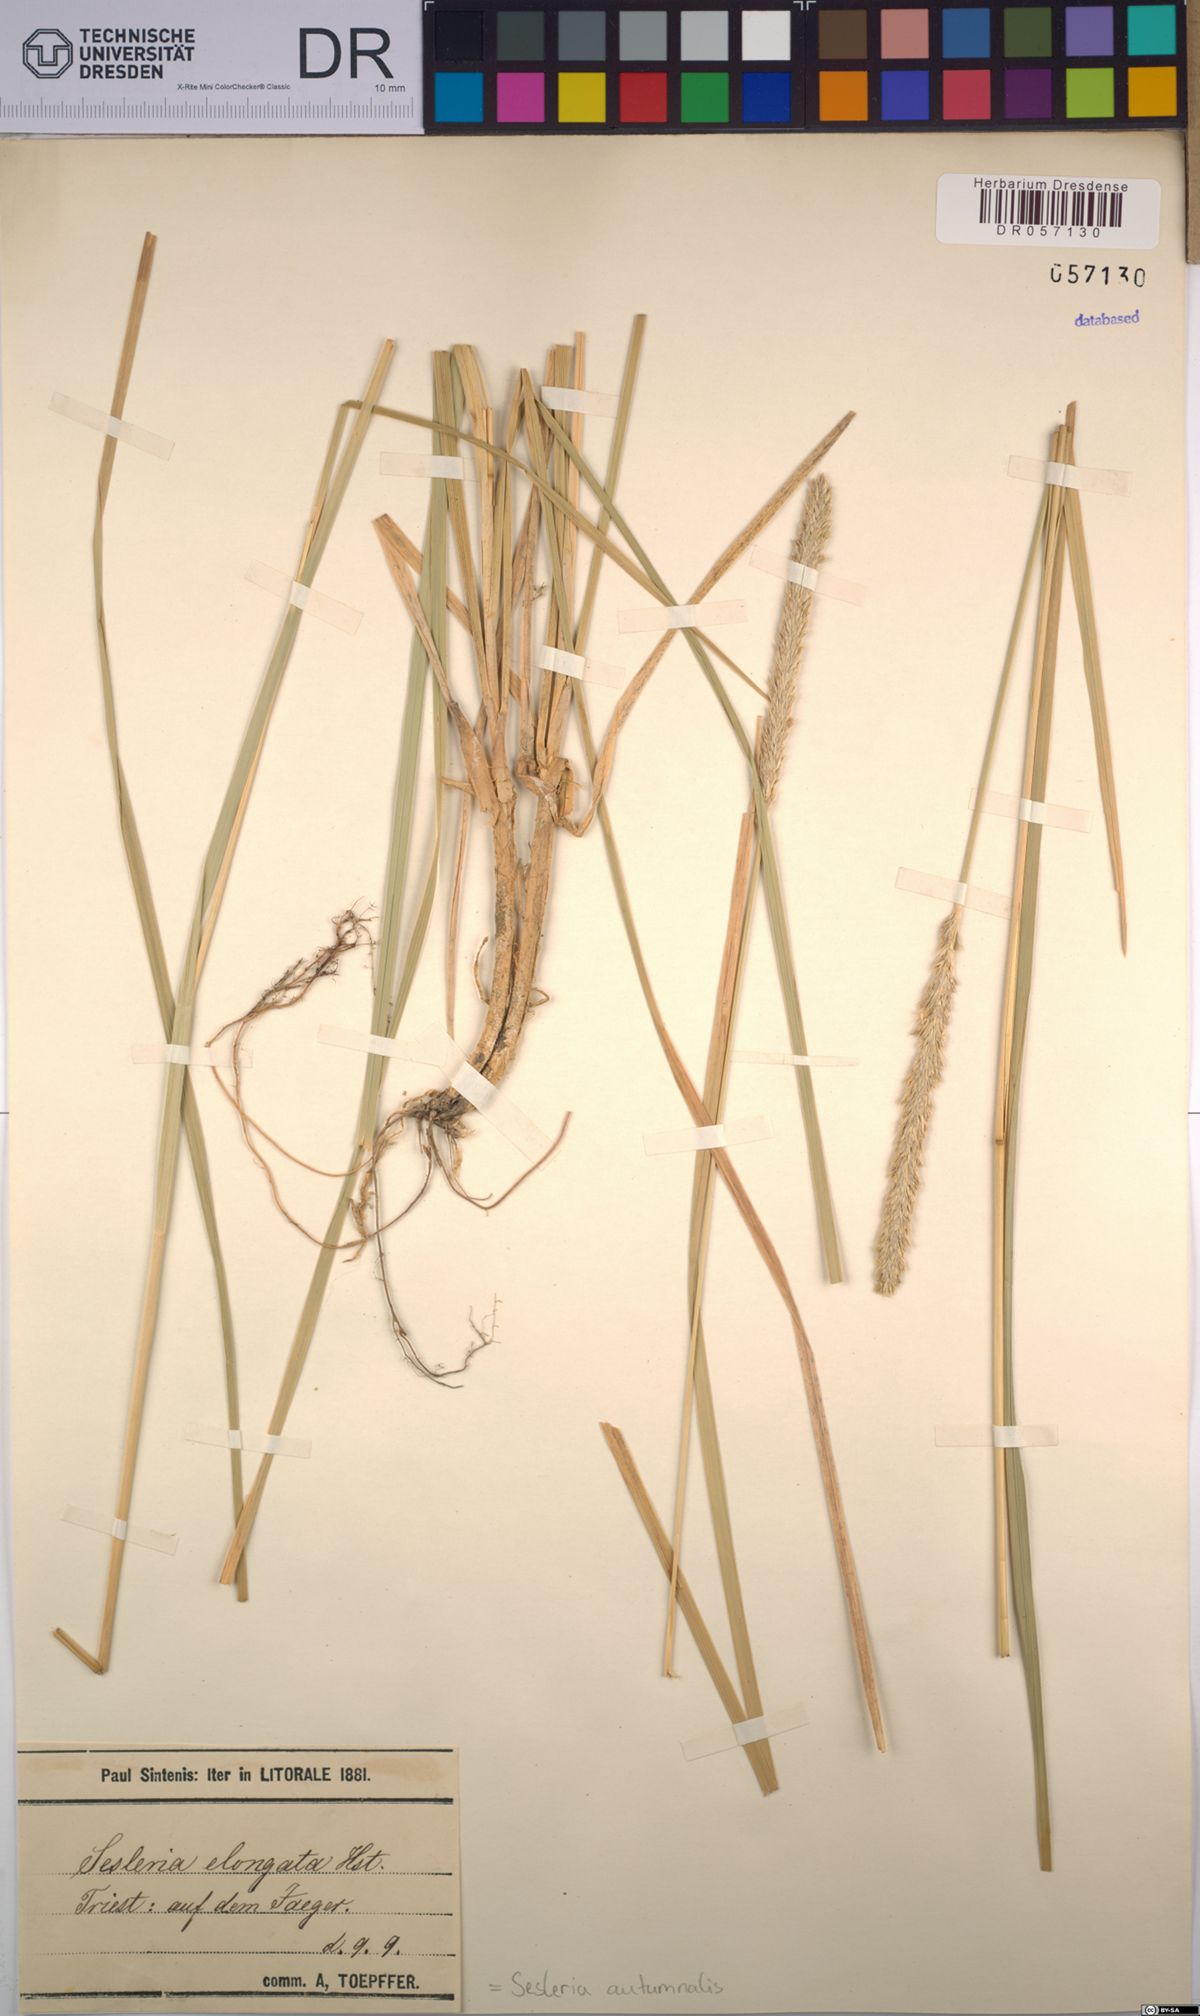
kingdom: Plantae
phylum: Tracheophyta
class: Liliopsida
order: Poales
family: Poaceae
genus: Sesleria
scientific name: Sesleria autumnalis
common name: Autumn moor grass
